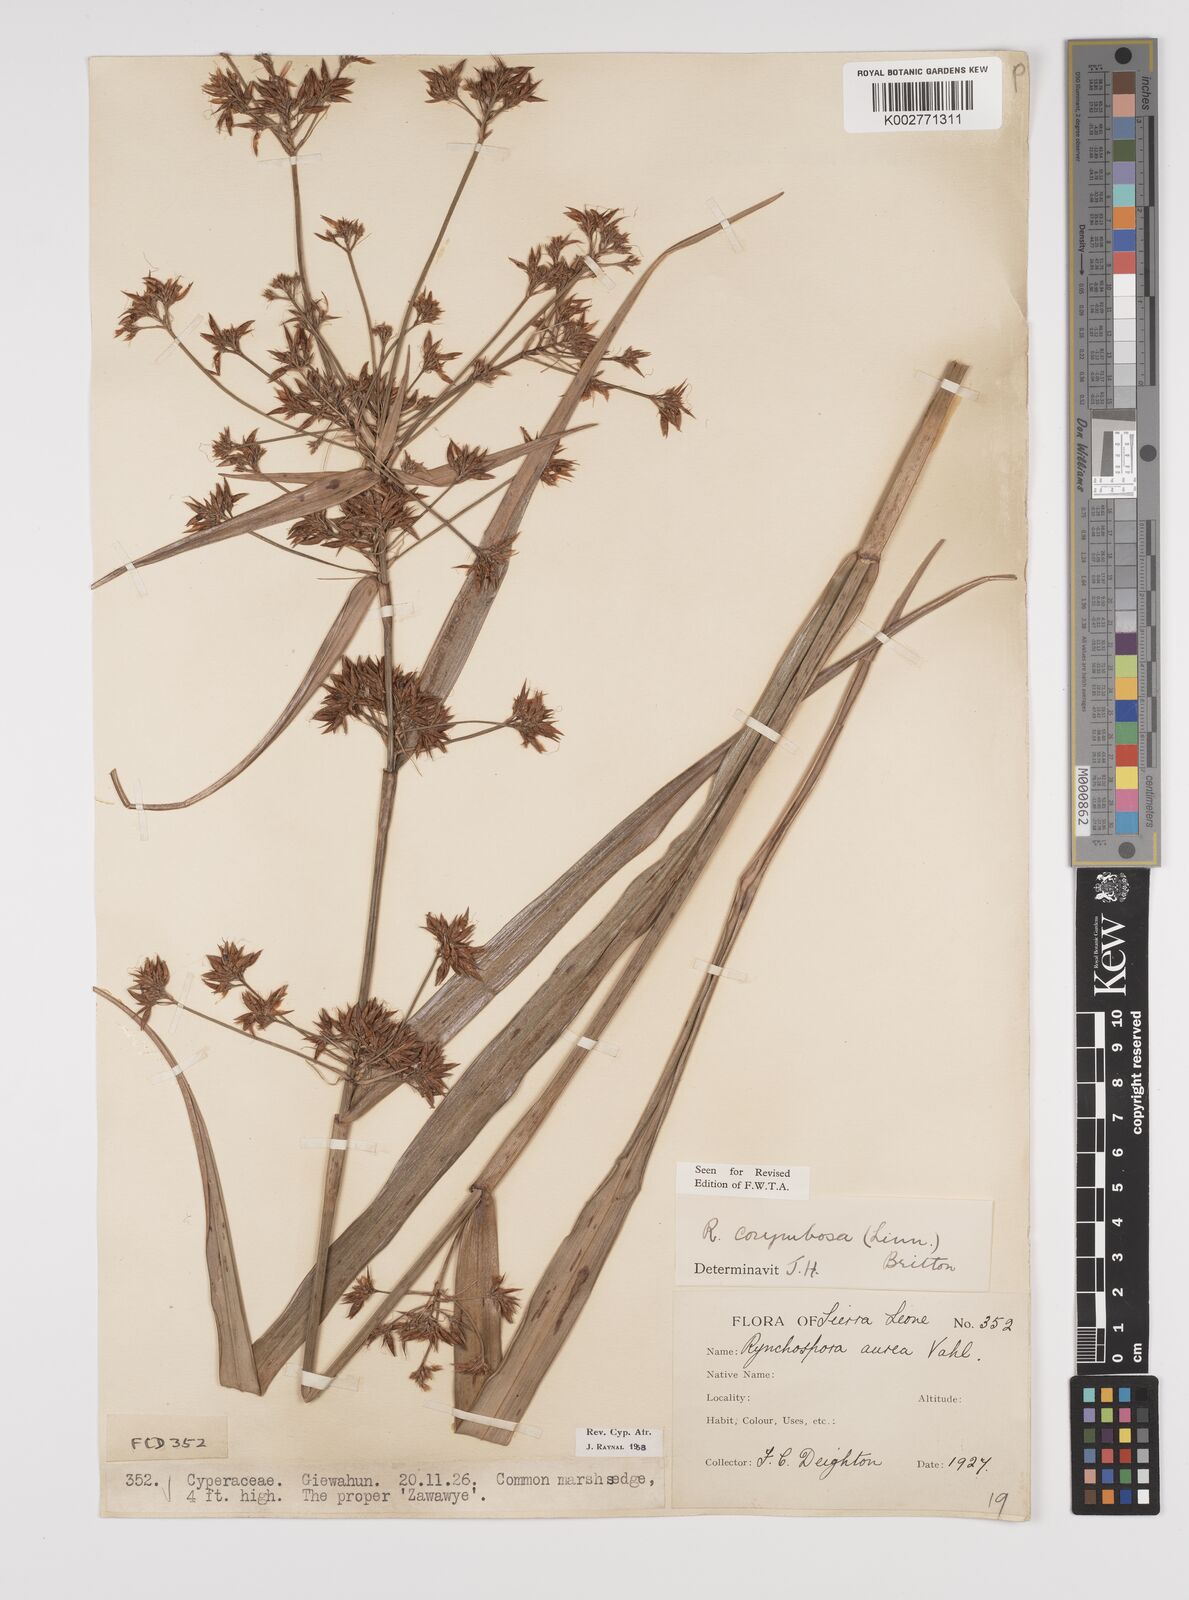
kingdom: Plantae
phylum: Tracheophyta
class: Liliopsida
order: Poales
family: Cyperaceae
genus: Rhynchospora
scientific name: Rhynchospora corymbosa
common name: Golden beak sedge
